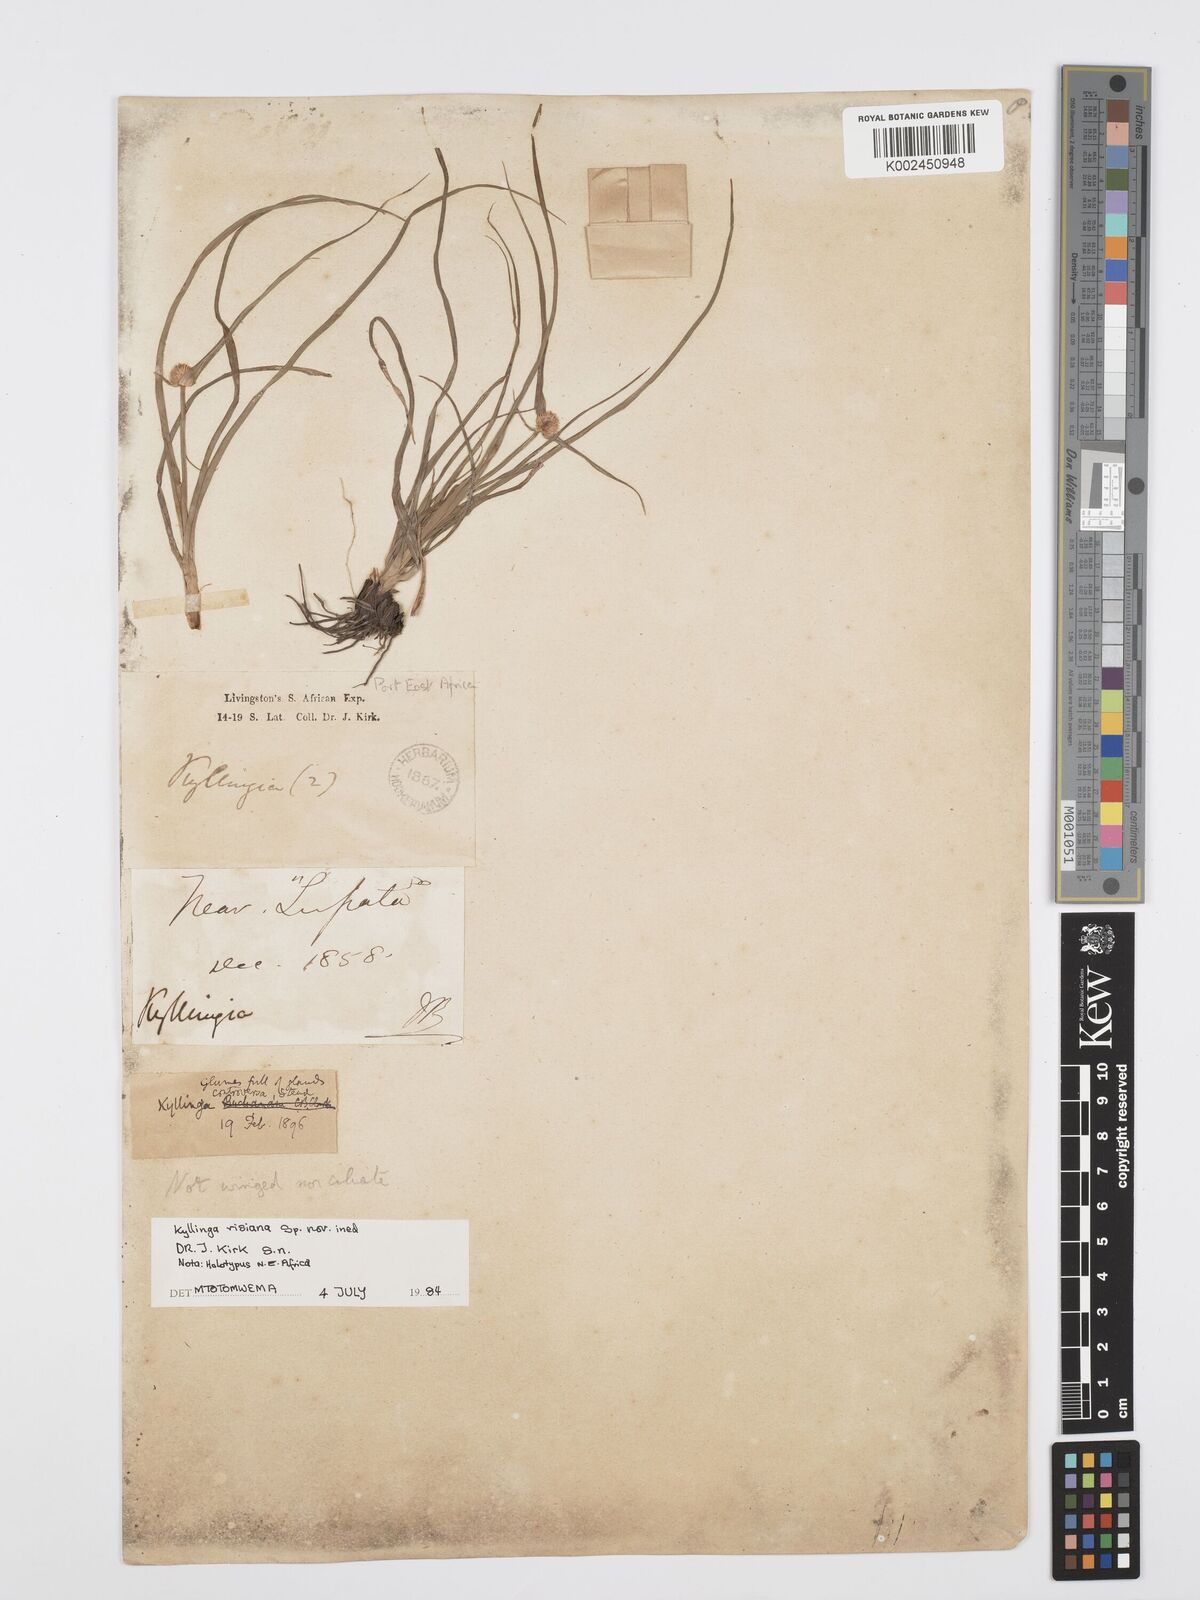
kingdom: Plantae
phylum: Tracheophyta
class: Liliopsida
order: Poales
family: Cyperaceae
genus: Cyperus
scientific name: Cyperus
